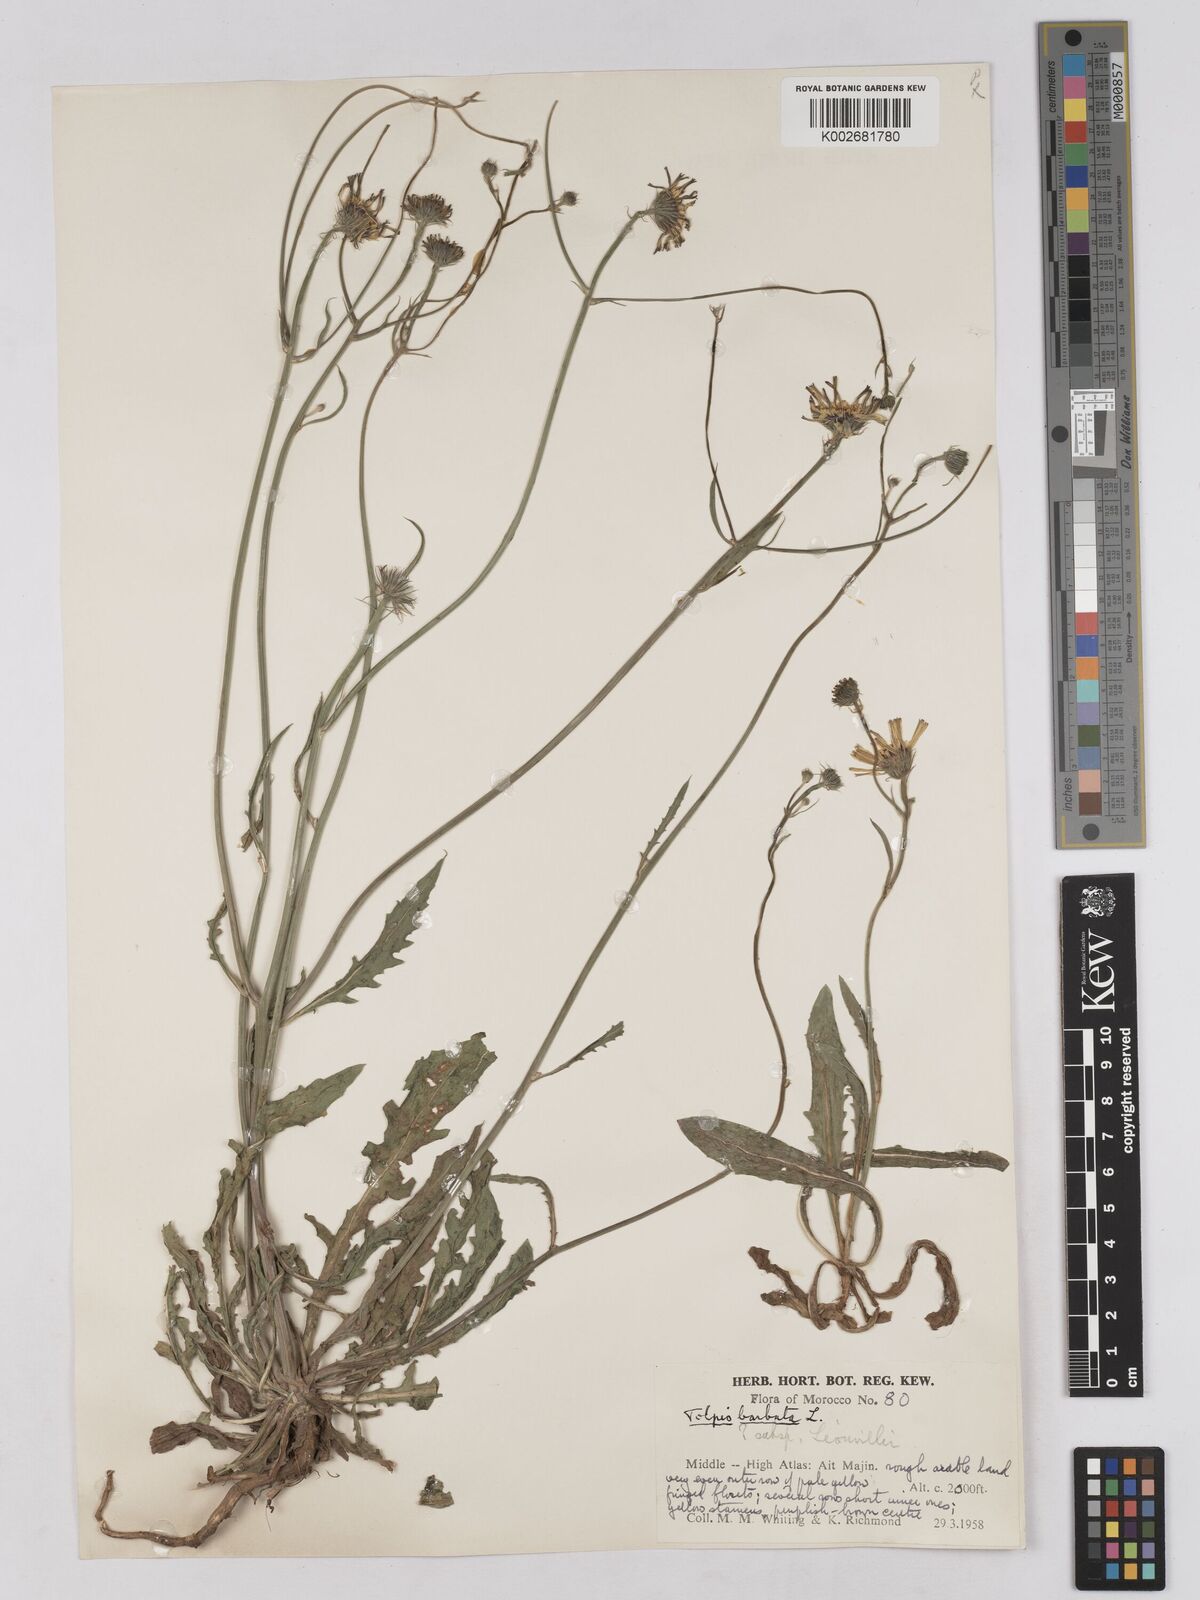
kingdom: Plantae
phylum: Tracheophyta
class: Magnoliopsida
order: Asterales
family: Asteraceae
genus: Tolpis
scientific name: Tolpis liouvillei
